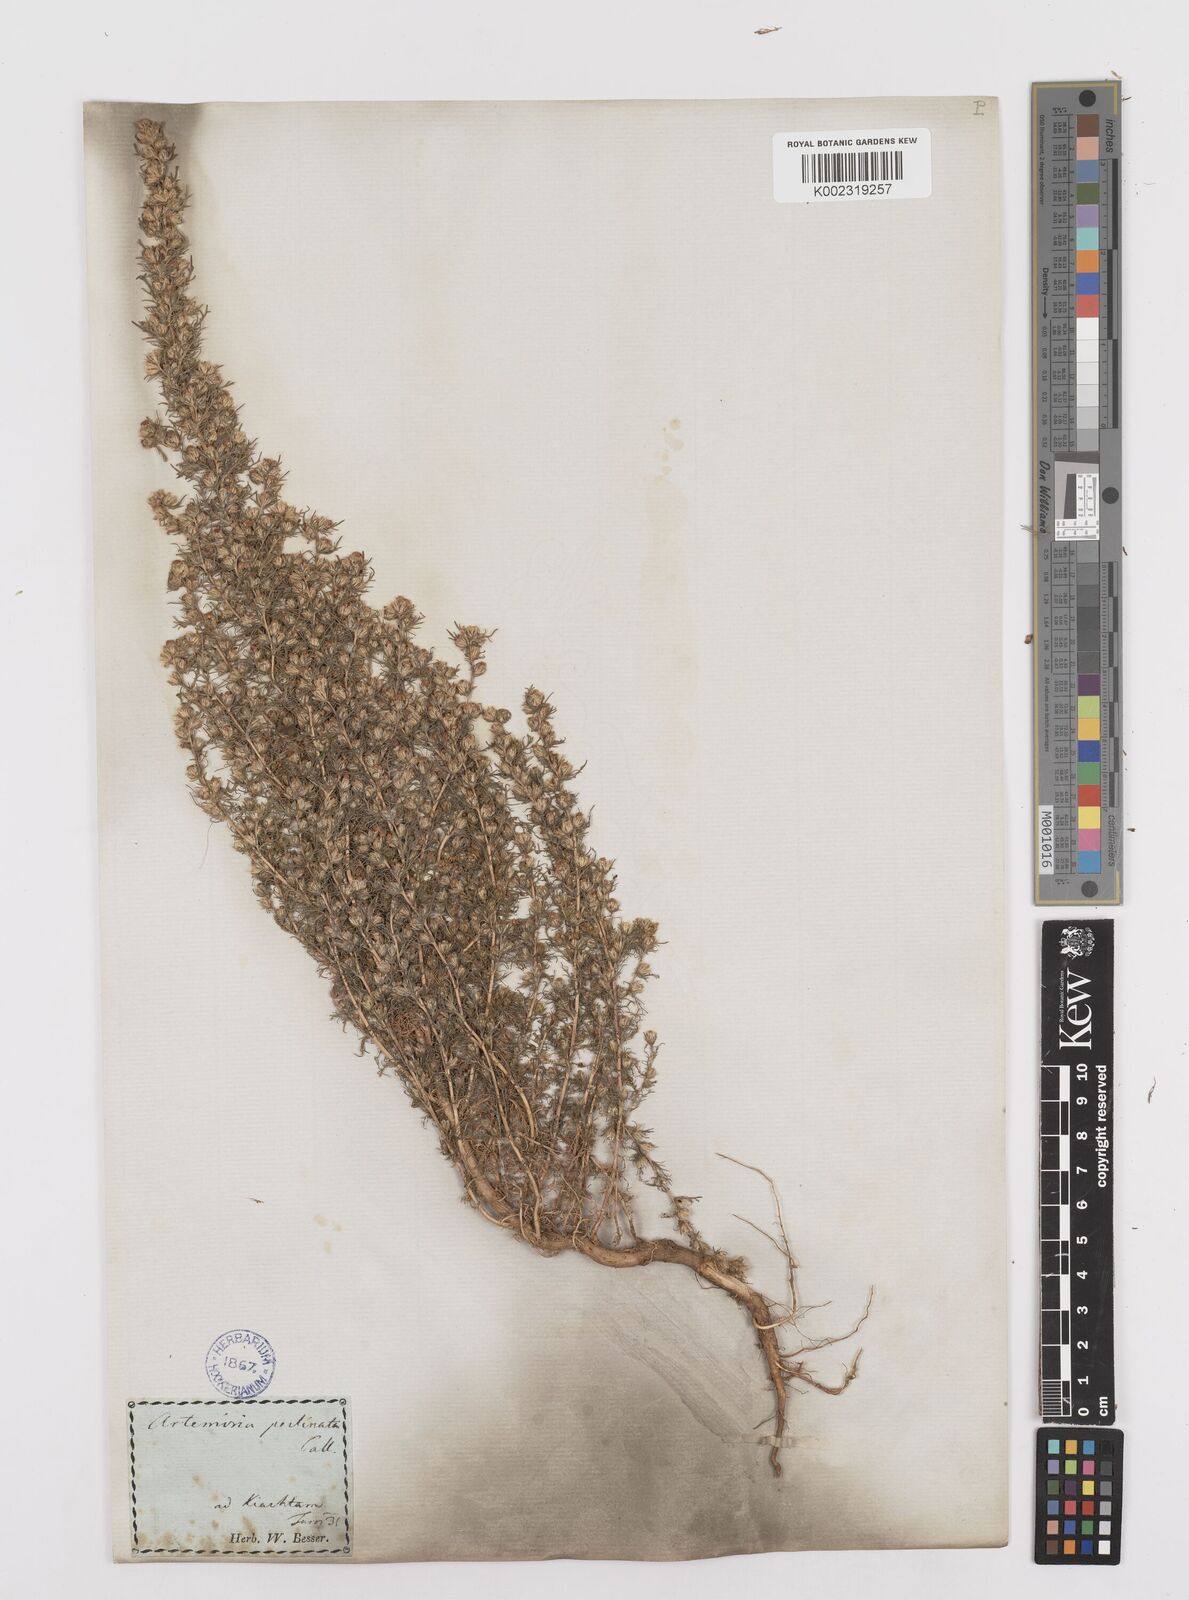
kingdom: Plantae
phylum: Tracheophyta
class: Magnoliopsida
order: Asterales
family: Asteraceae
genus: Neopallasia
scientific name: Neopallasia pectinata
